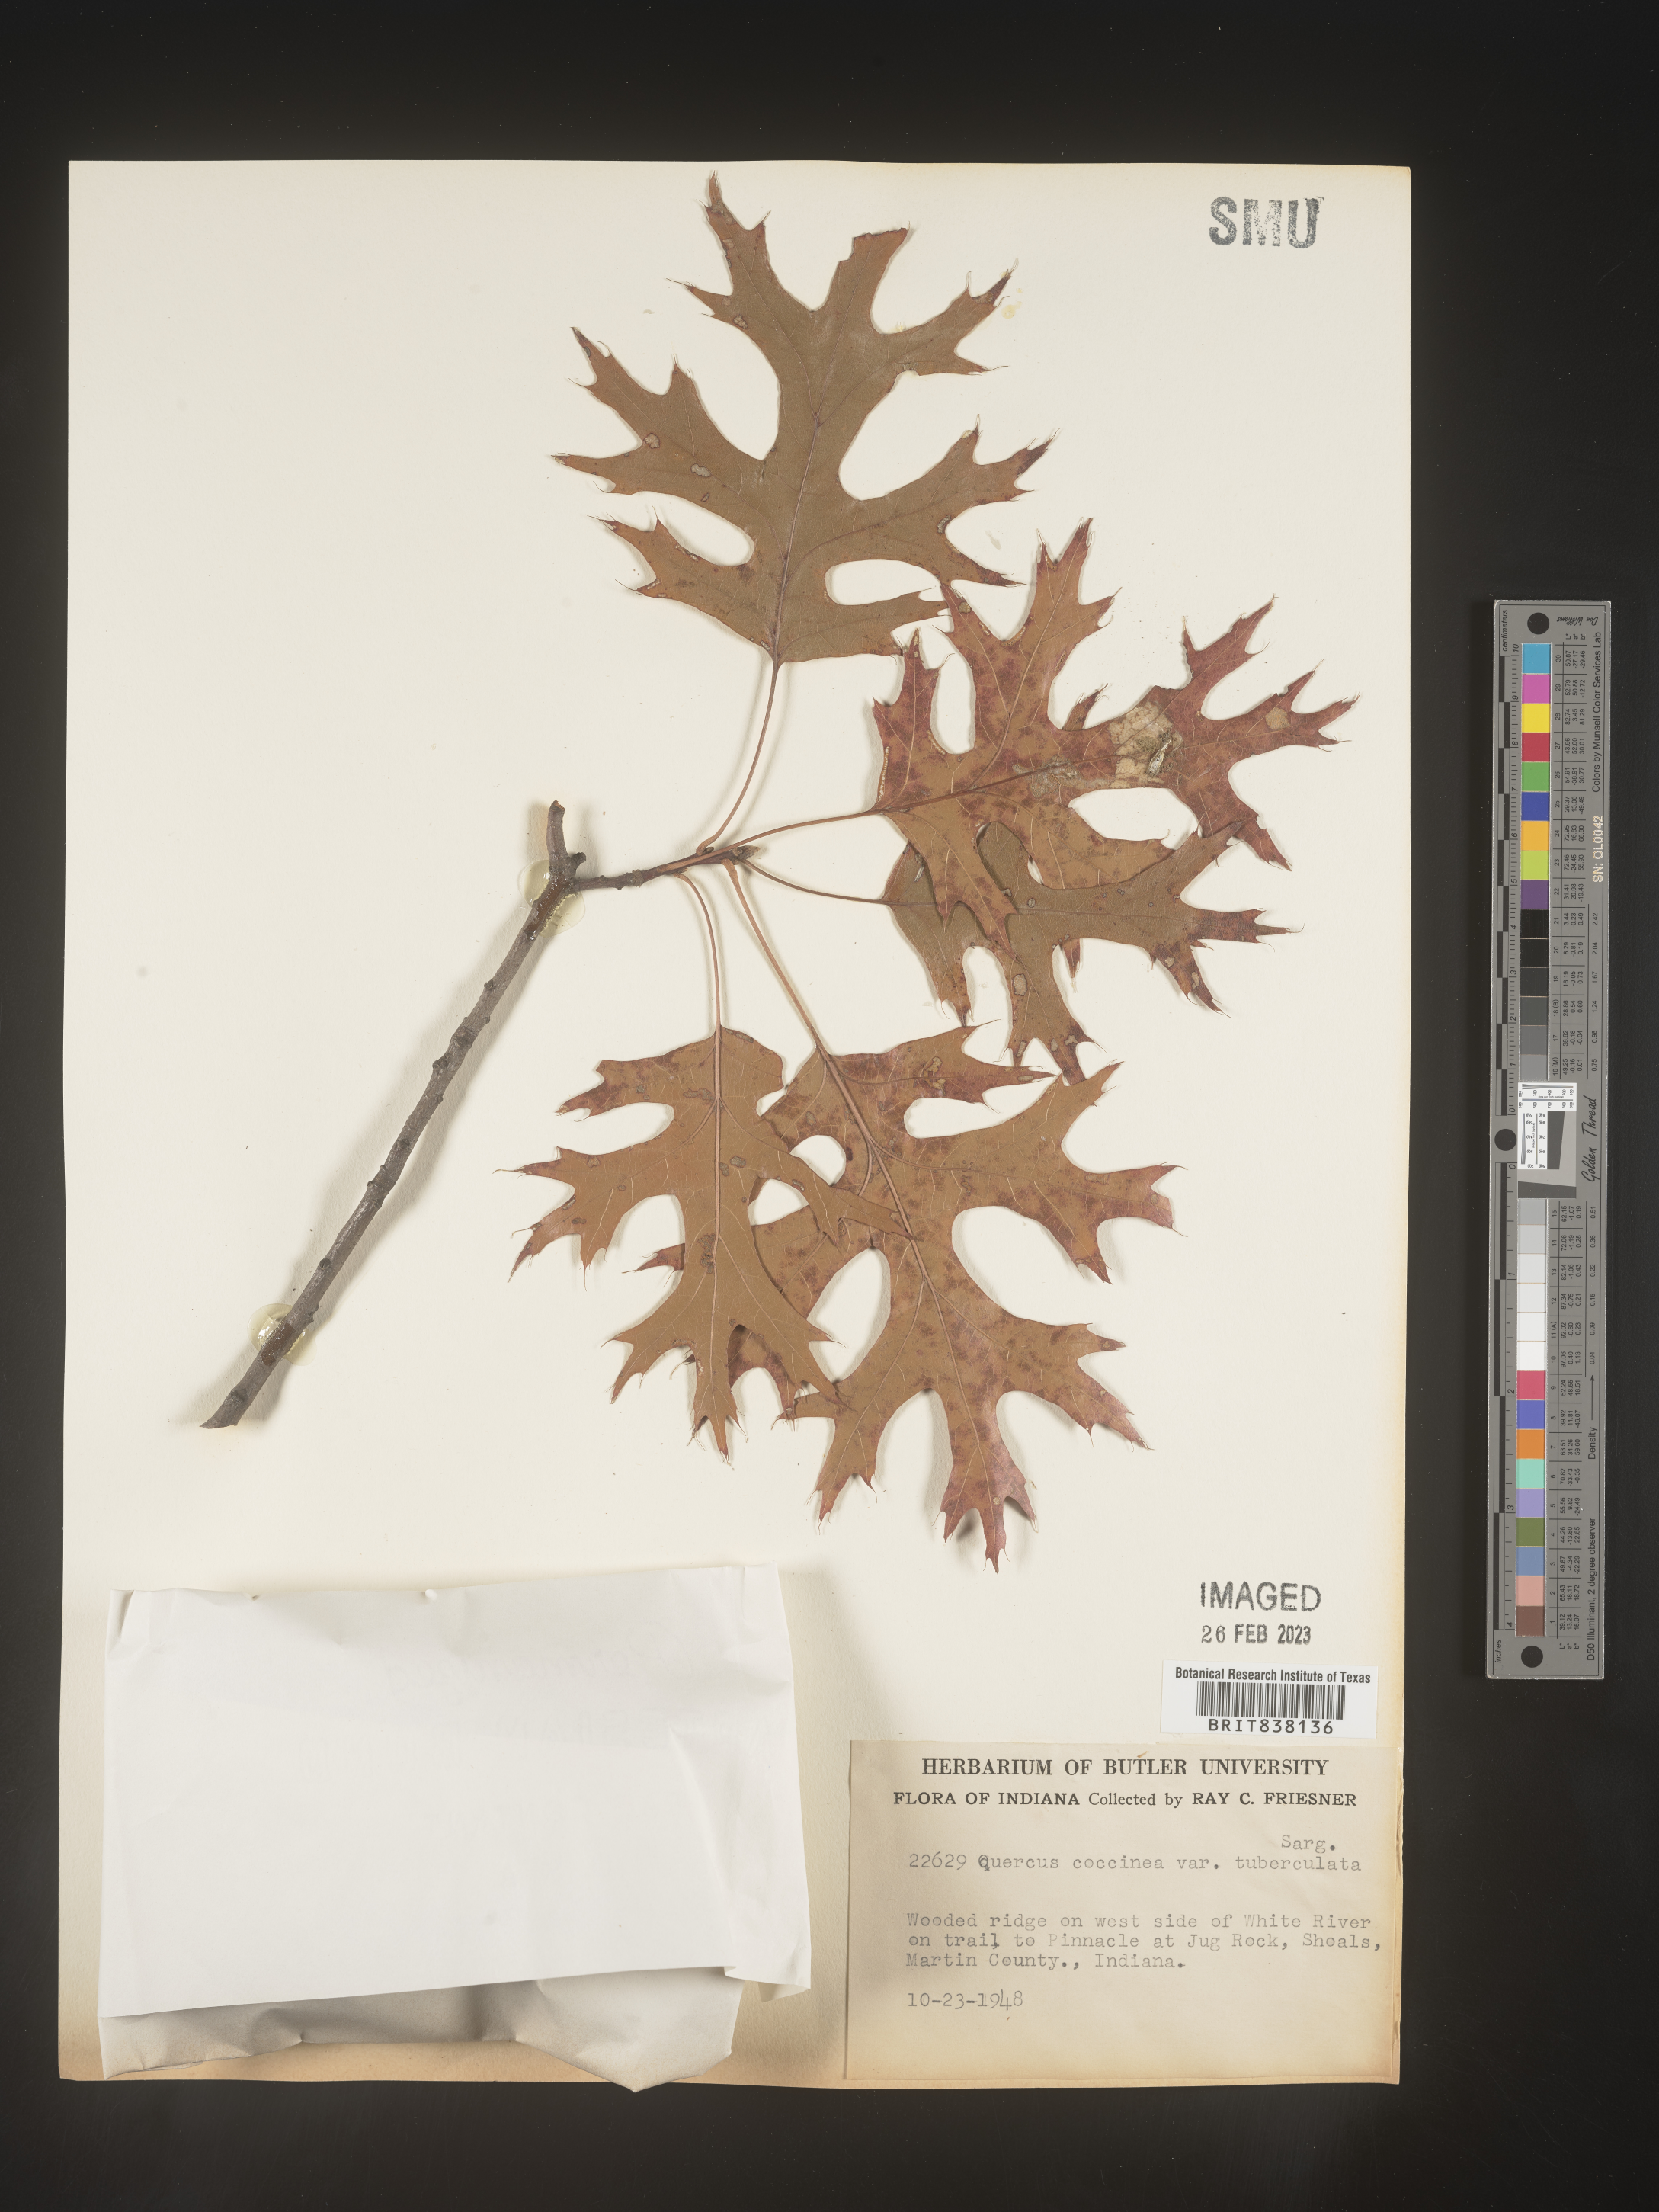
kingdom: Plantae
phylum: Tracheophyta
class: Magnoliopsida
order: Fagales
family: Fagaceae
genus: Quercus
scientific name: Quercus coccinea
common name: Scarlet oak
